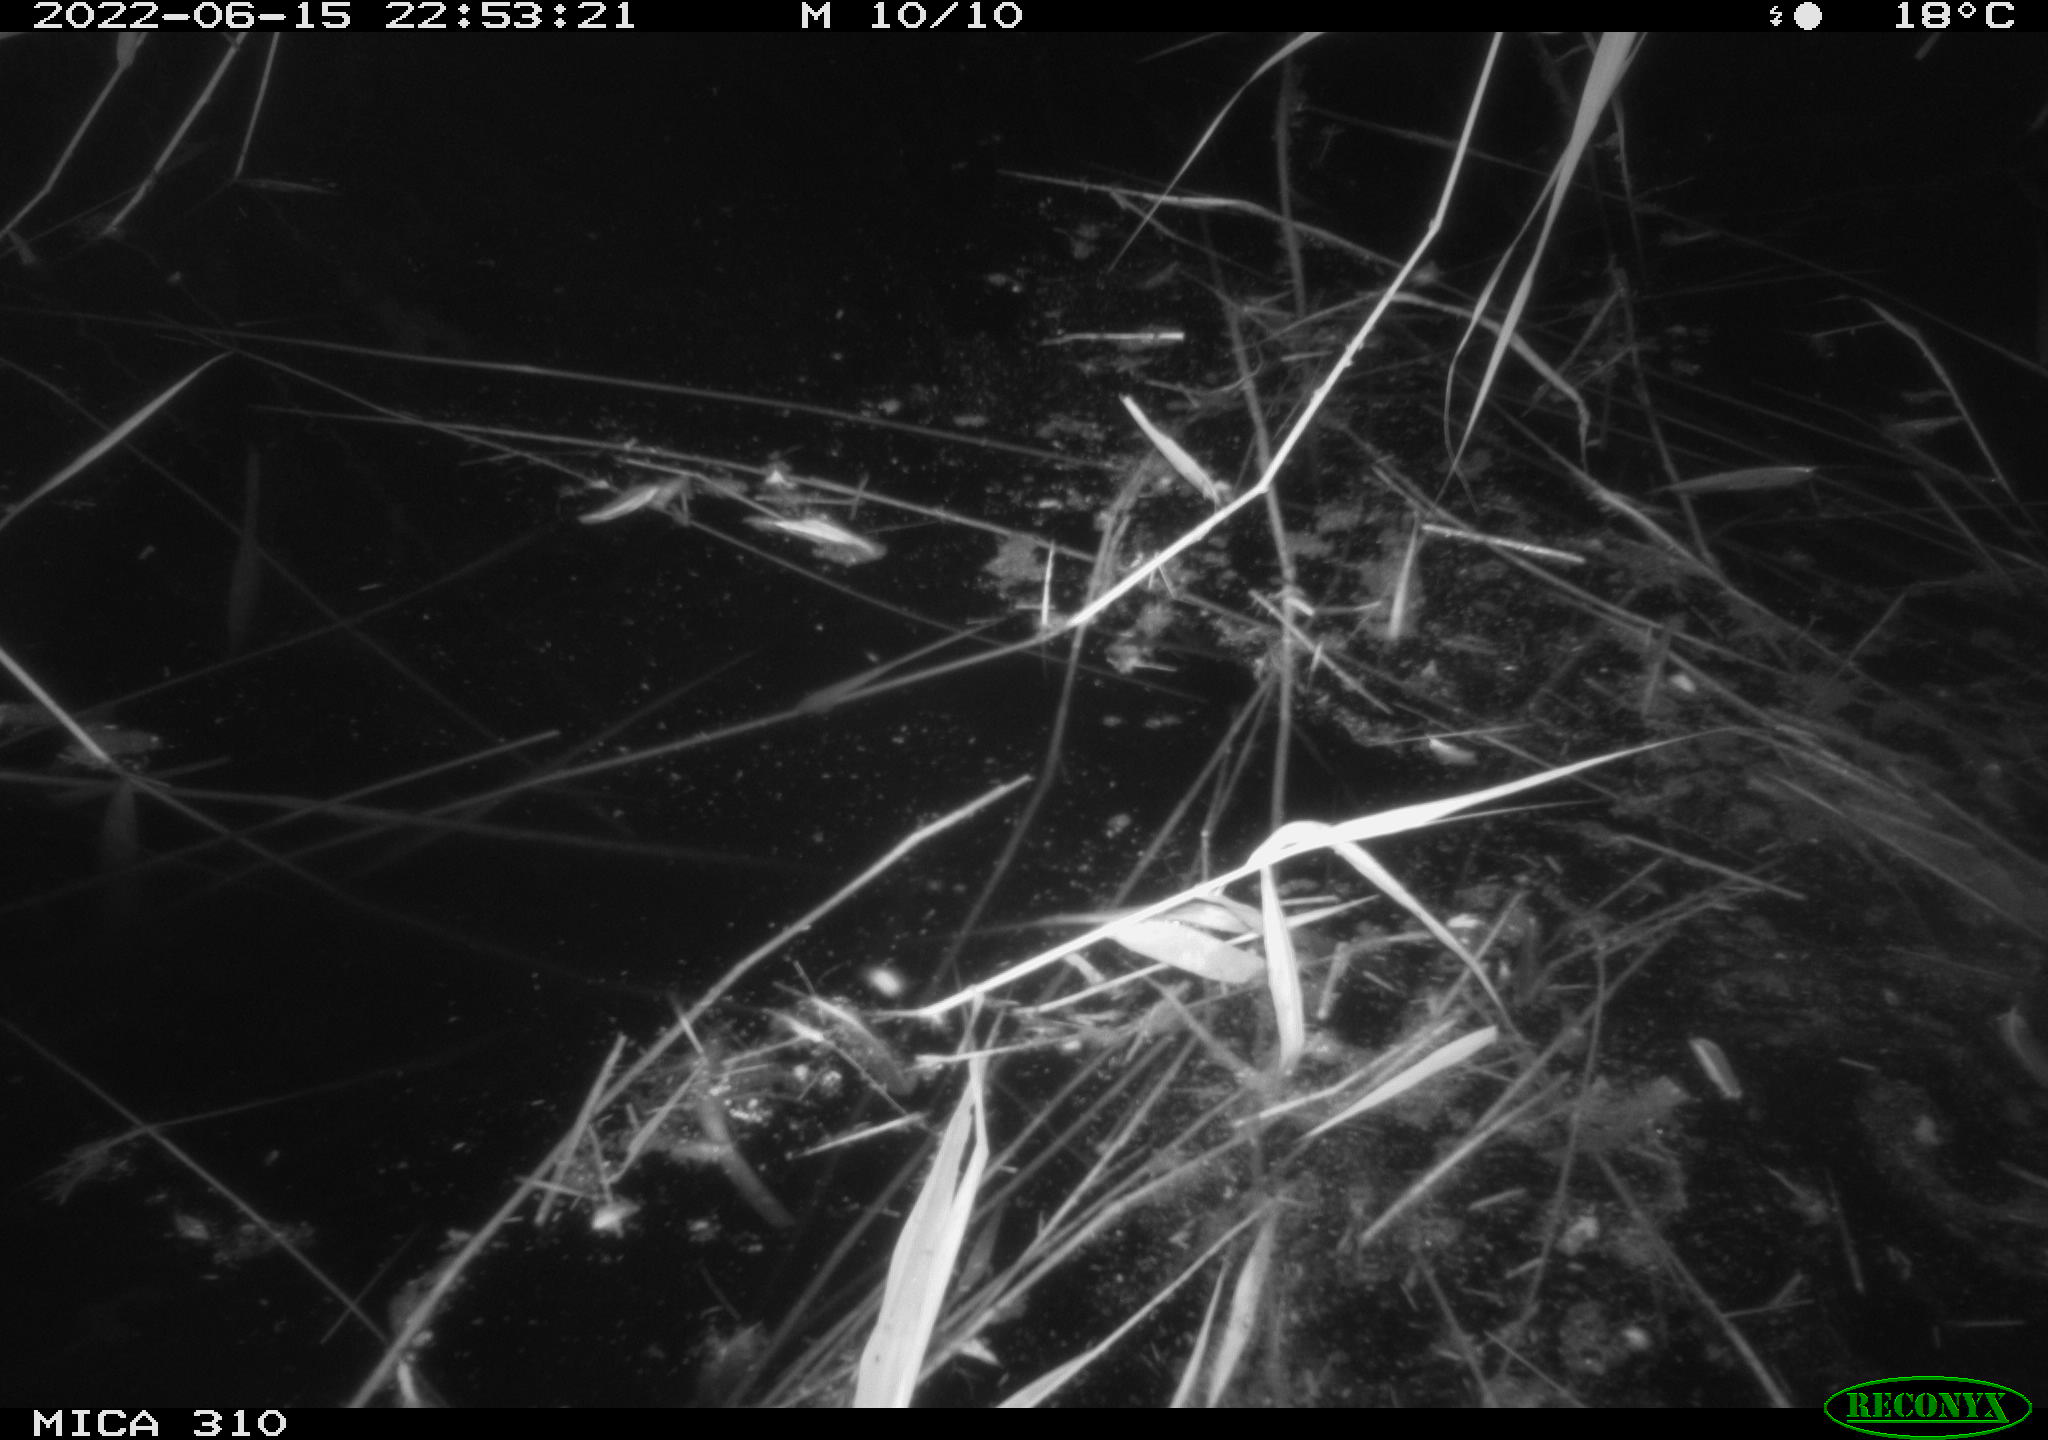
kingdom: Animalia
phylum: Chordata
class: Aves
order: Anseriformes
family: Anatidae
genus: Anas
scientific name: Anas platyrhynchos
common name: Mallard
